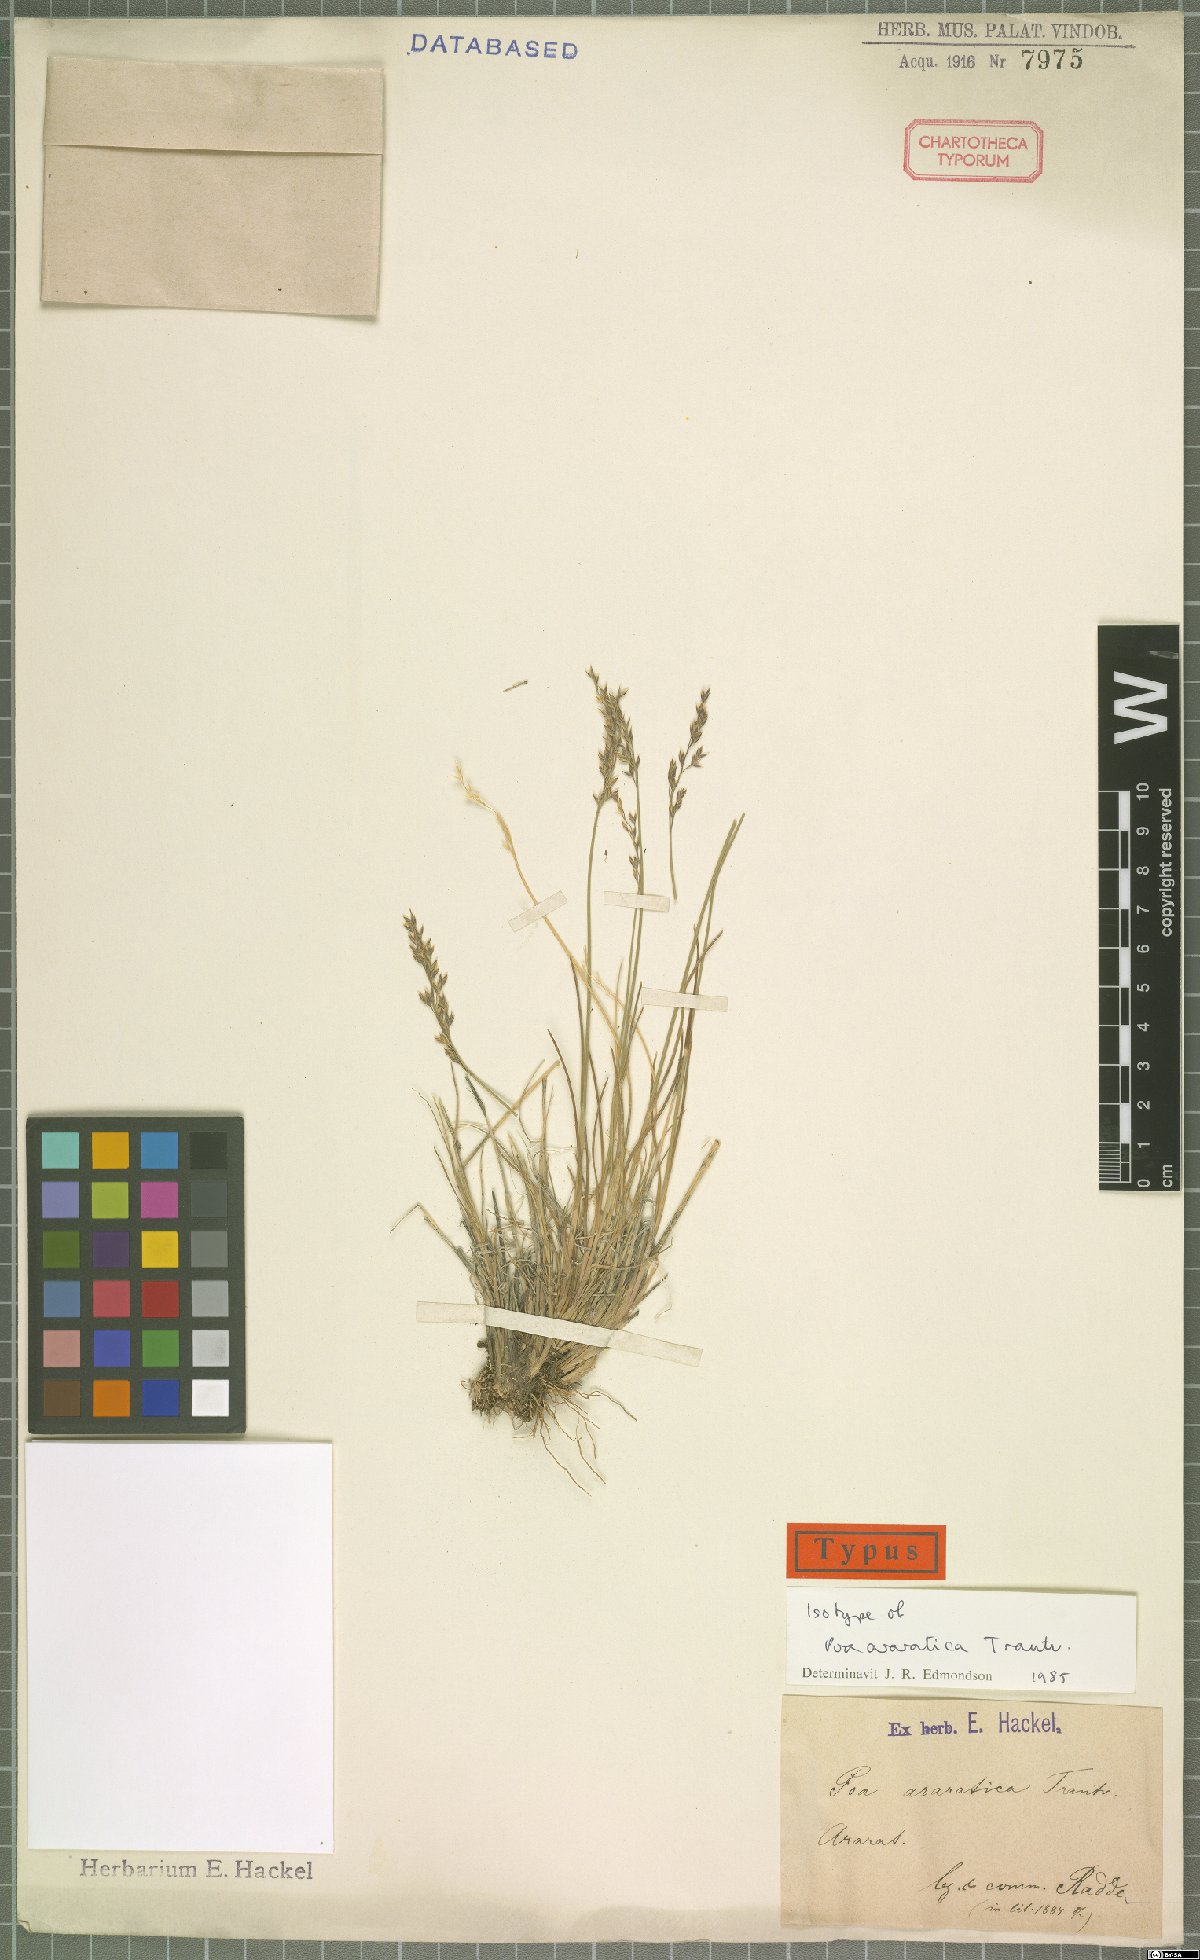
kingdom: Plantae
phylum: Tracheophyta
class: Liliopsida
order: Poales
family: Poaceae
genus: Poa
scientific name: Poa araratica
